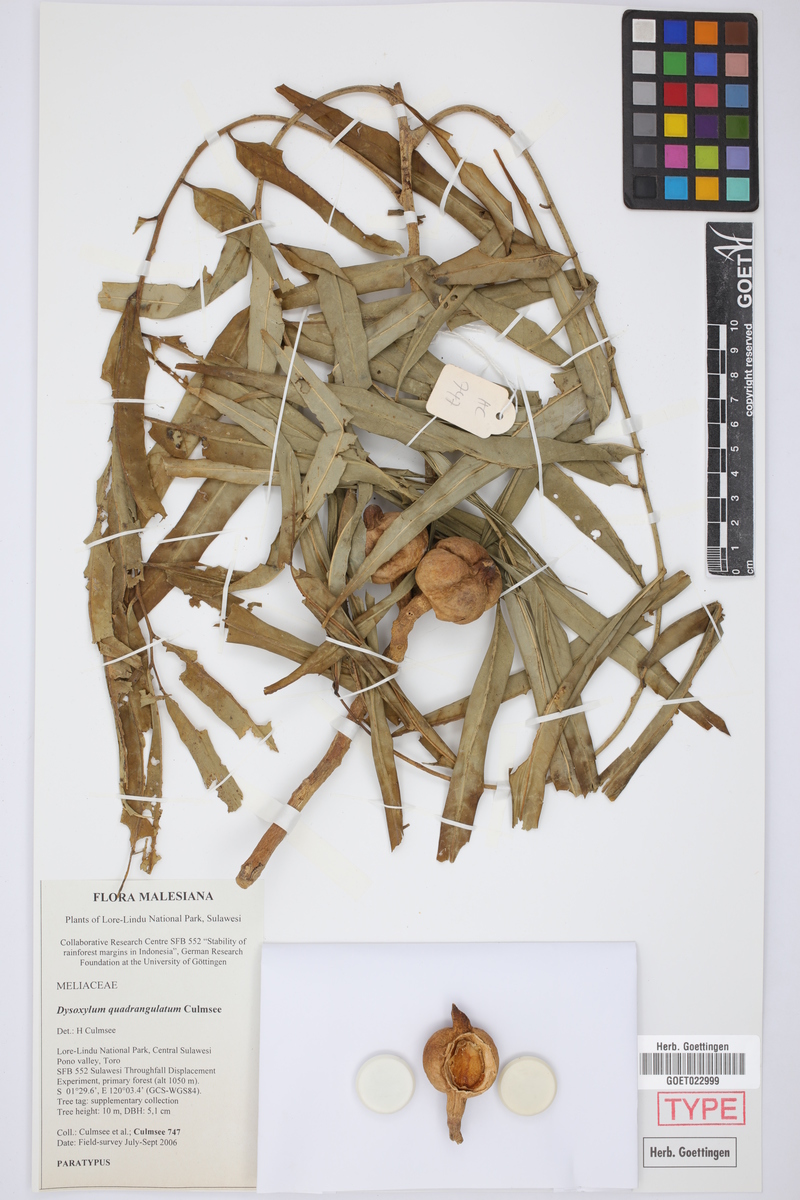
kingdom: Plantae
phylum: Tracheophyta
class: Magnoliopsida
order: Sapindales
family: Meliaceae
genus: Dysoxylum
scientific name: Dysoxylum quadrangulatum
